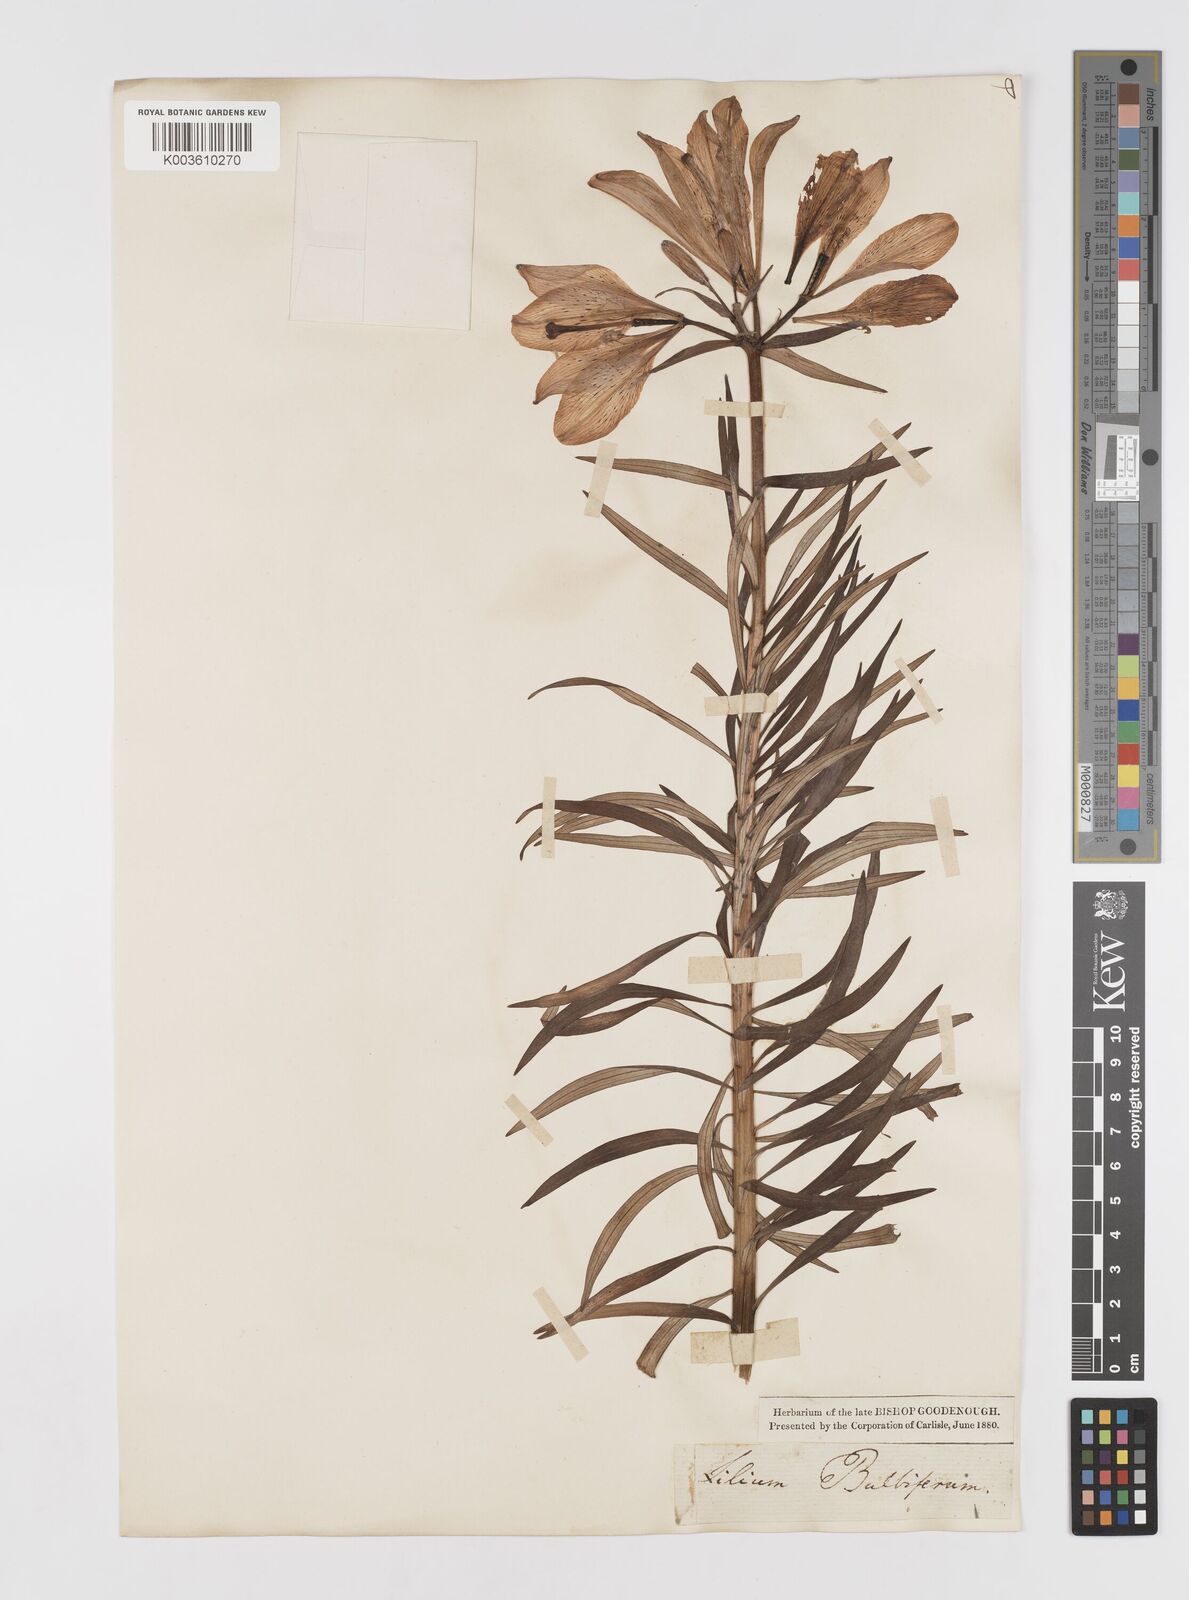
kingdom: Plantae
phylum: Tracheophyta
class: Liliopsida
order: Liliales
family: Liliaceae
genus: Lilium
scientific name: Lilium bulbiferum
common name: Orange lily
